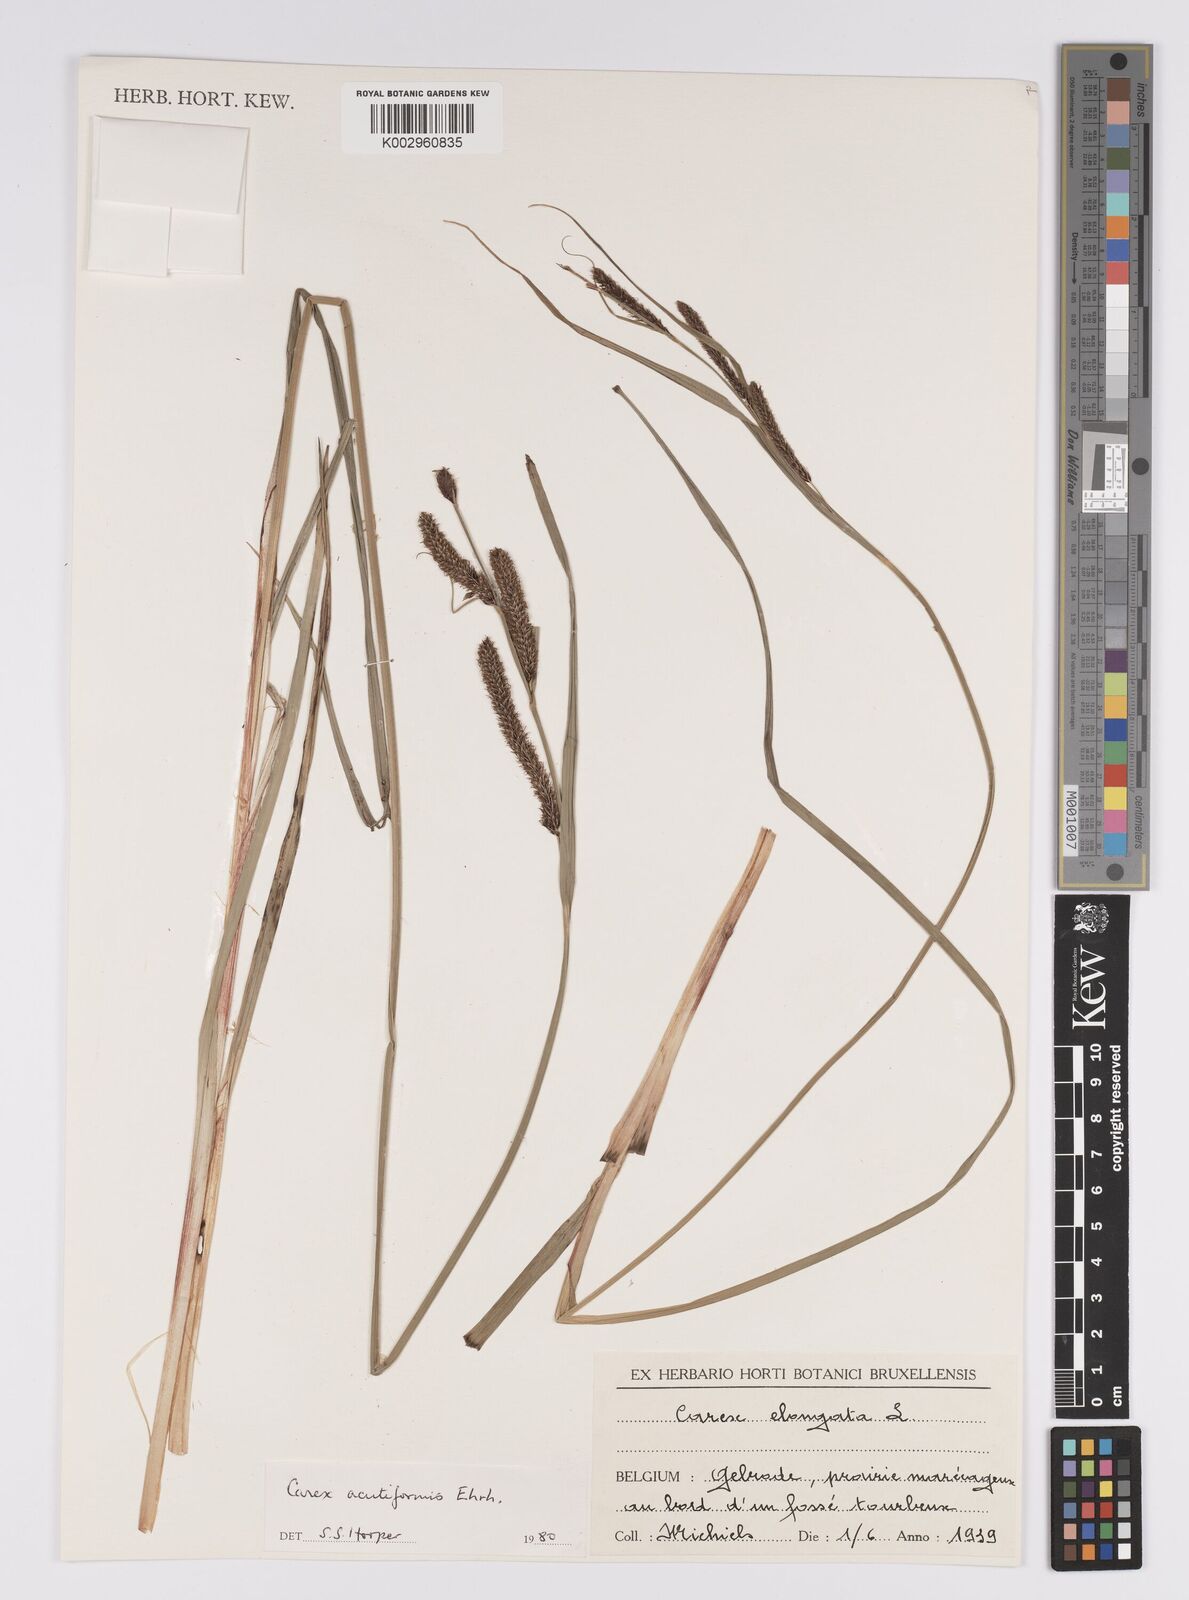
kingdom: Plantae
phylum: Tracheophyta
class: Liliopsida
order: Poales
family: Cyperaceae
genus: Carex
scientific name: Carex acutiformis
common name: Lesser pond-sedge
